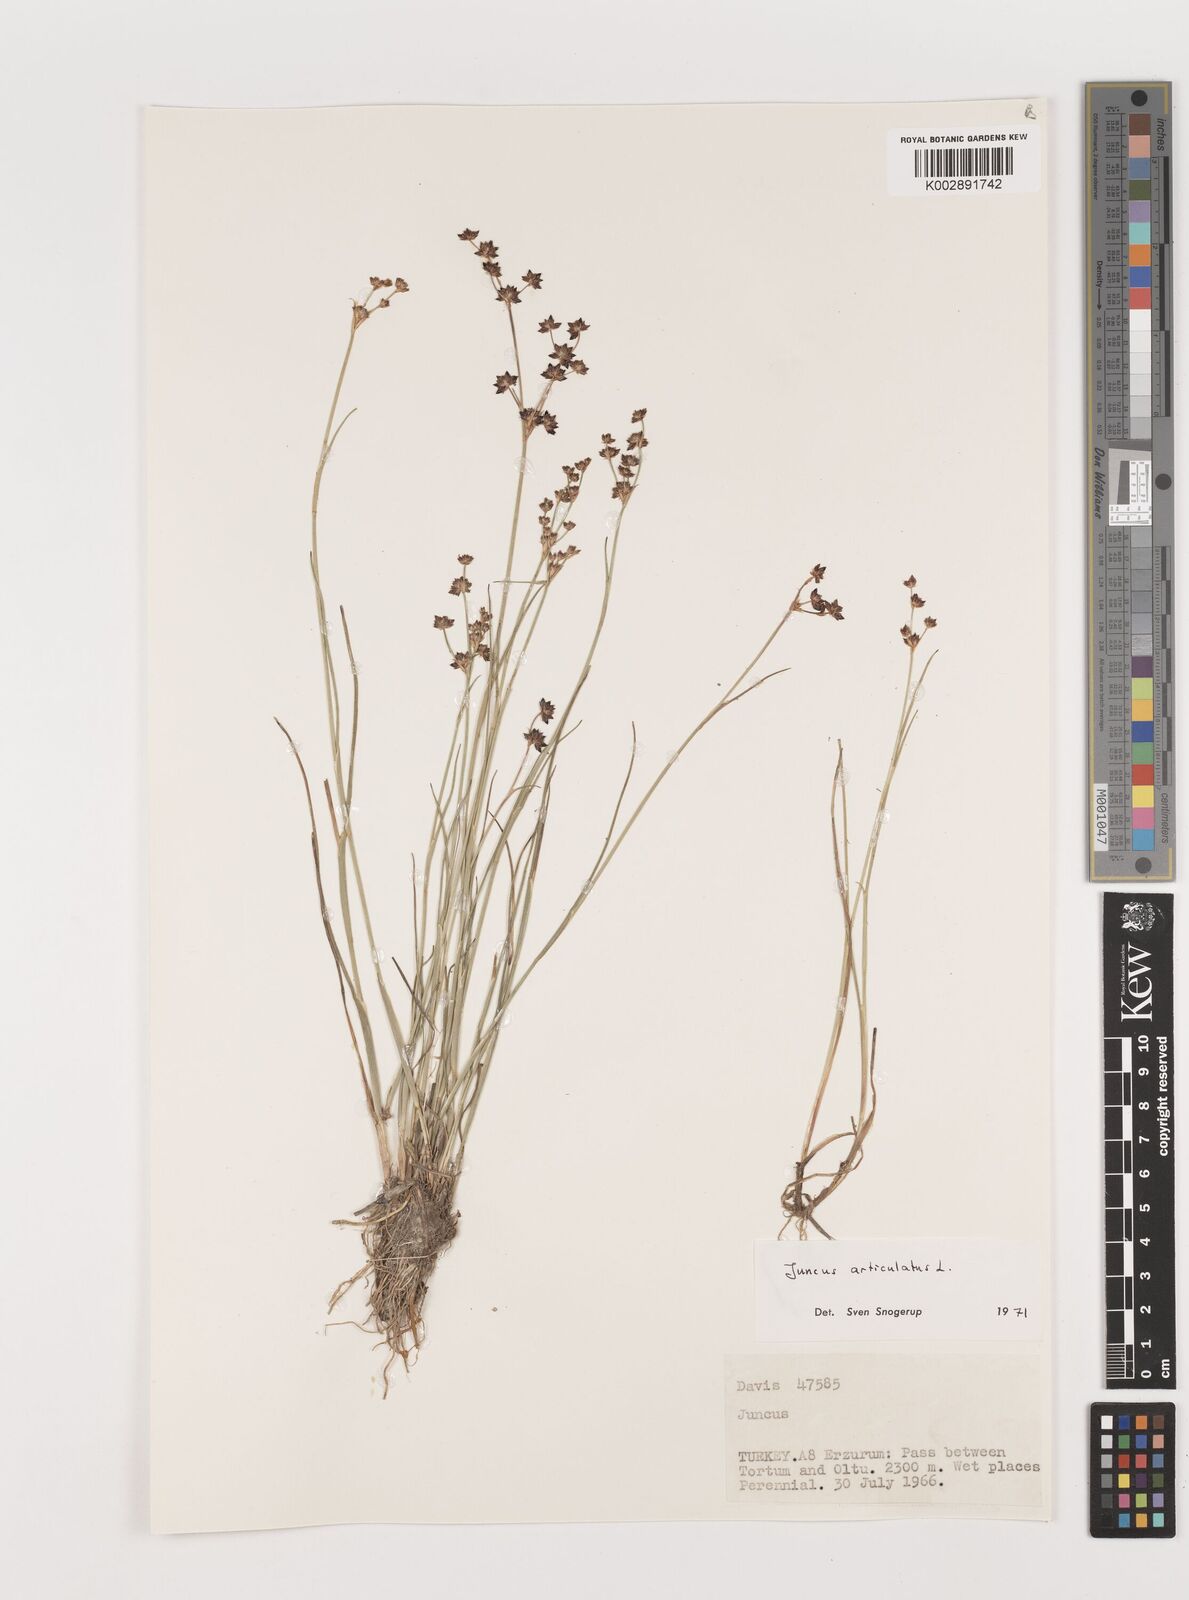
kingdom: Plantae
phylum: Tracheophyta
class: Liliopsida
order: Poales
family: Juncaceae
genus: Juncus
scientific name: Juncus articulatus
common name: Jointed rush
